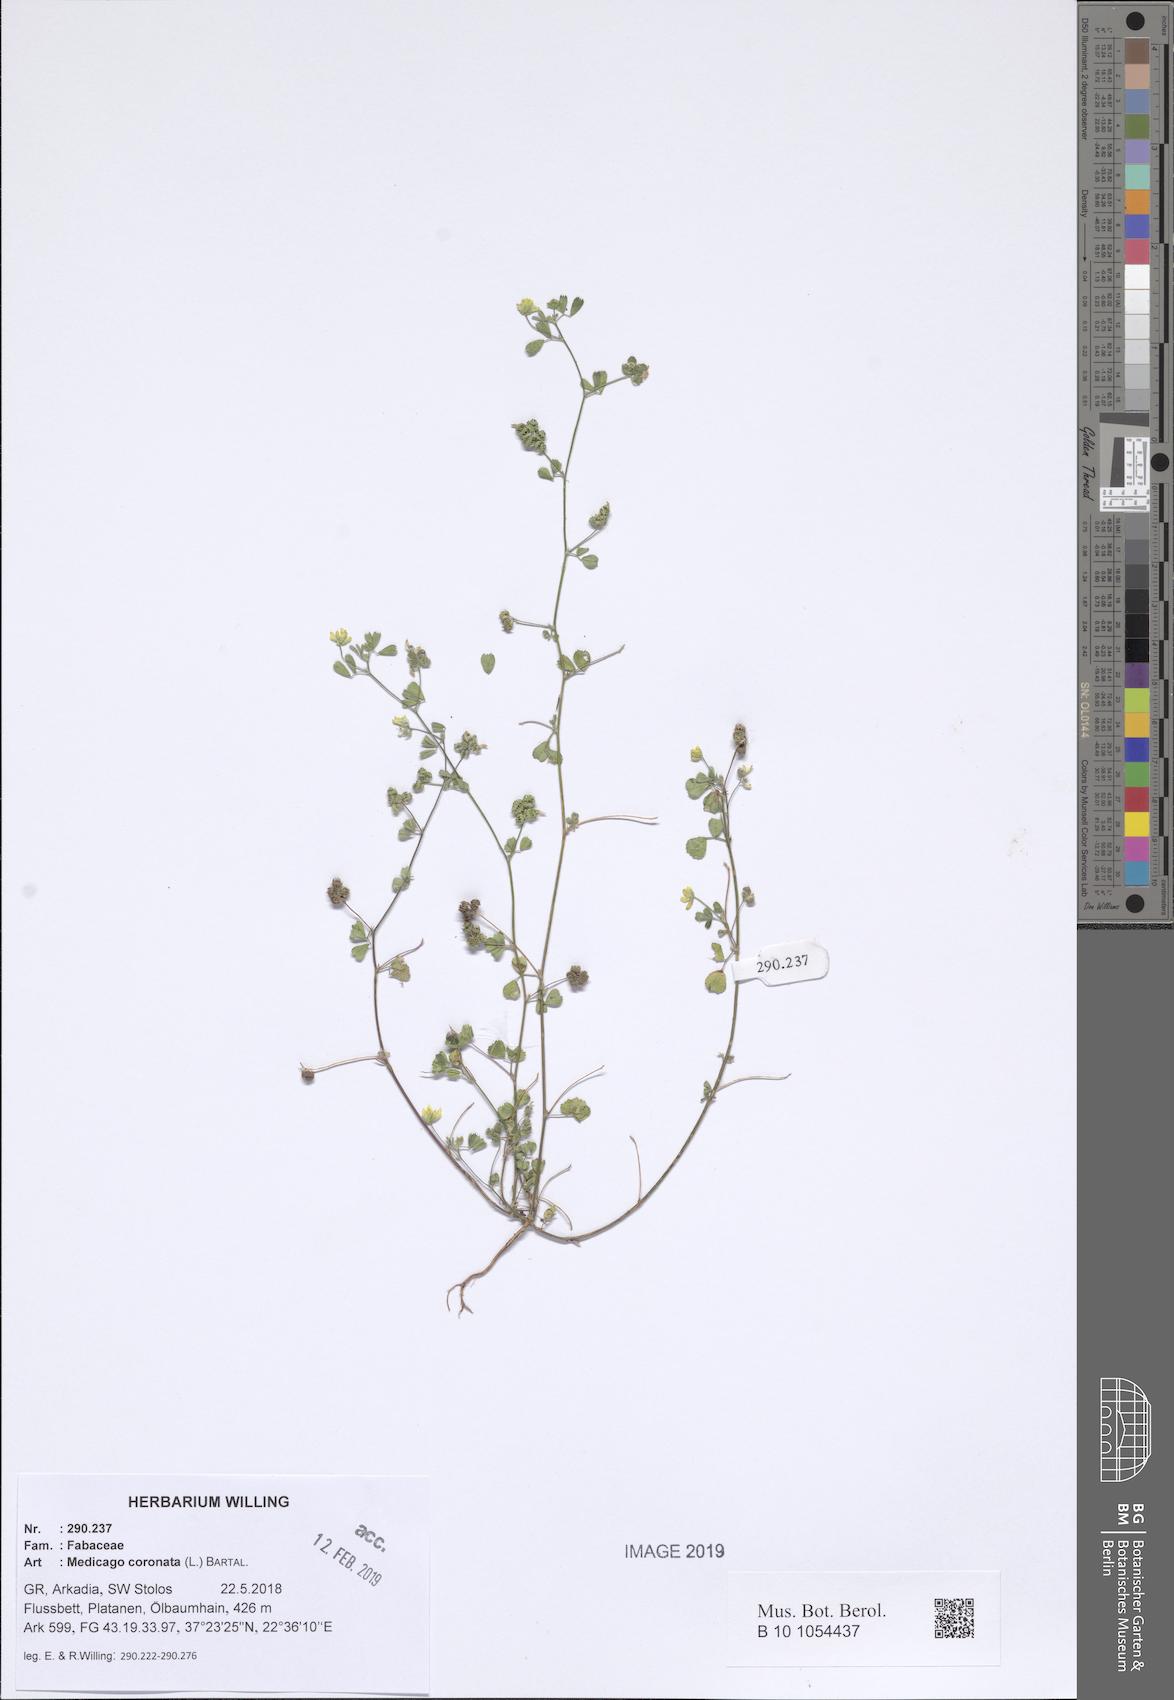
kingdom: Plantae
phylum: Tracheophyta
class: Magnoliopsida
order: Fabales
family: Fabaceae
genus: Medicago
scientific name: Medicago coronata
